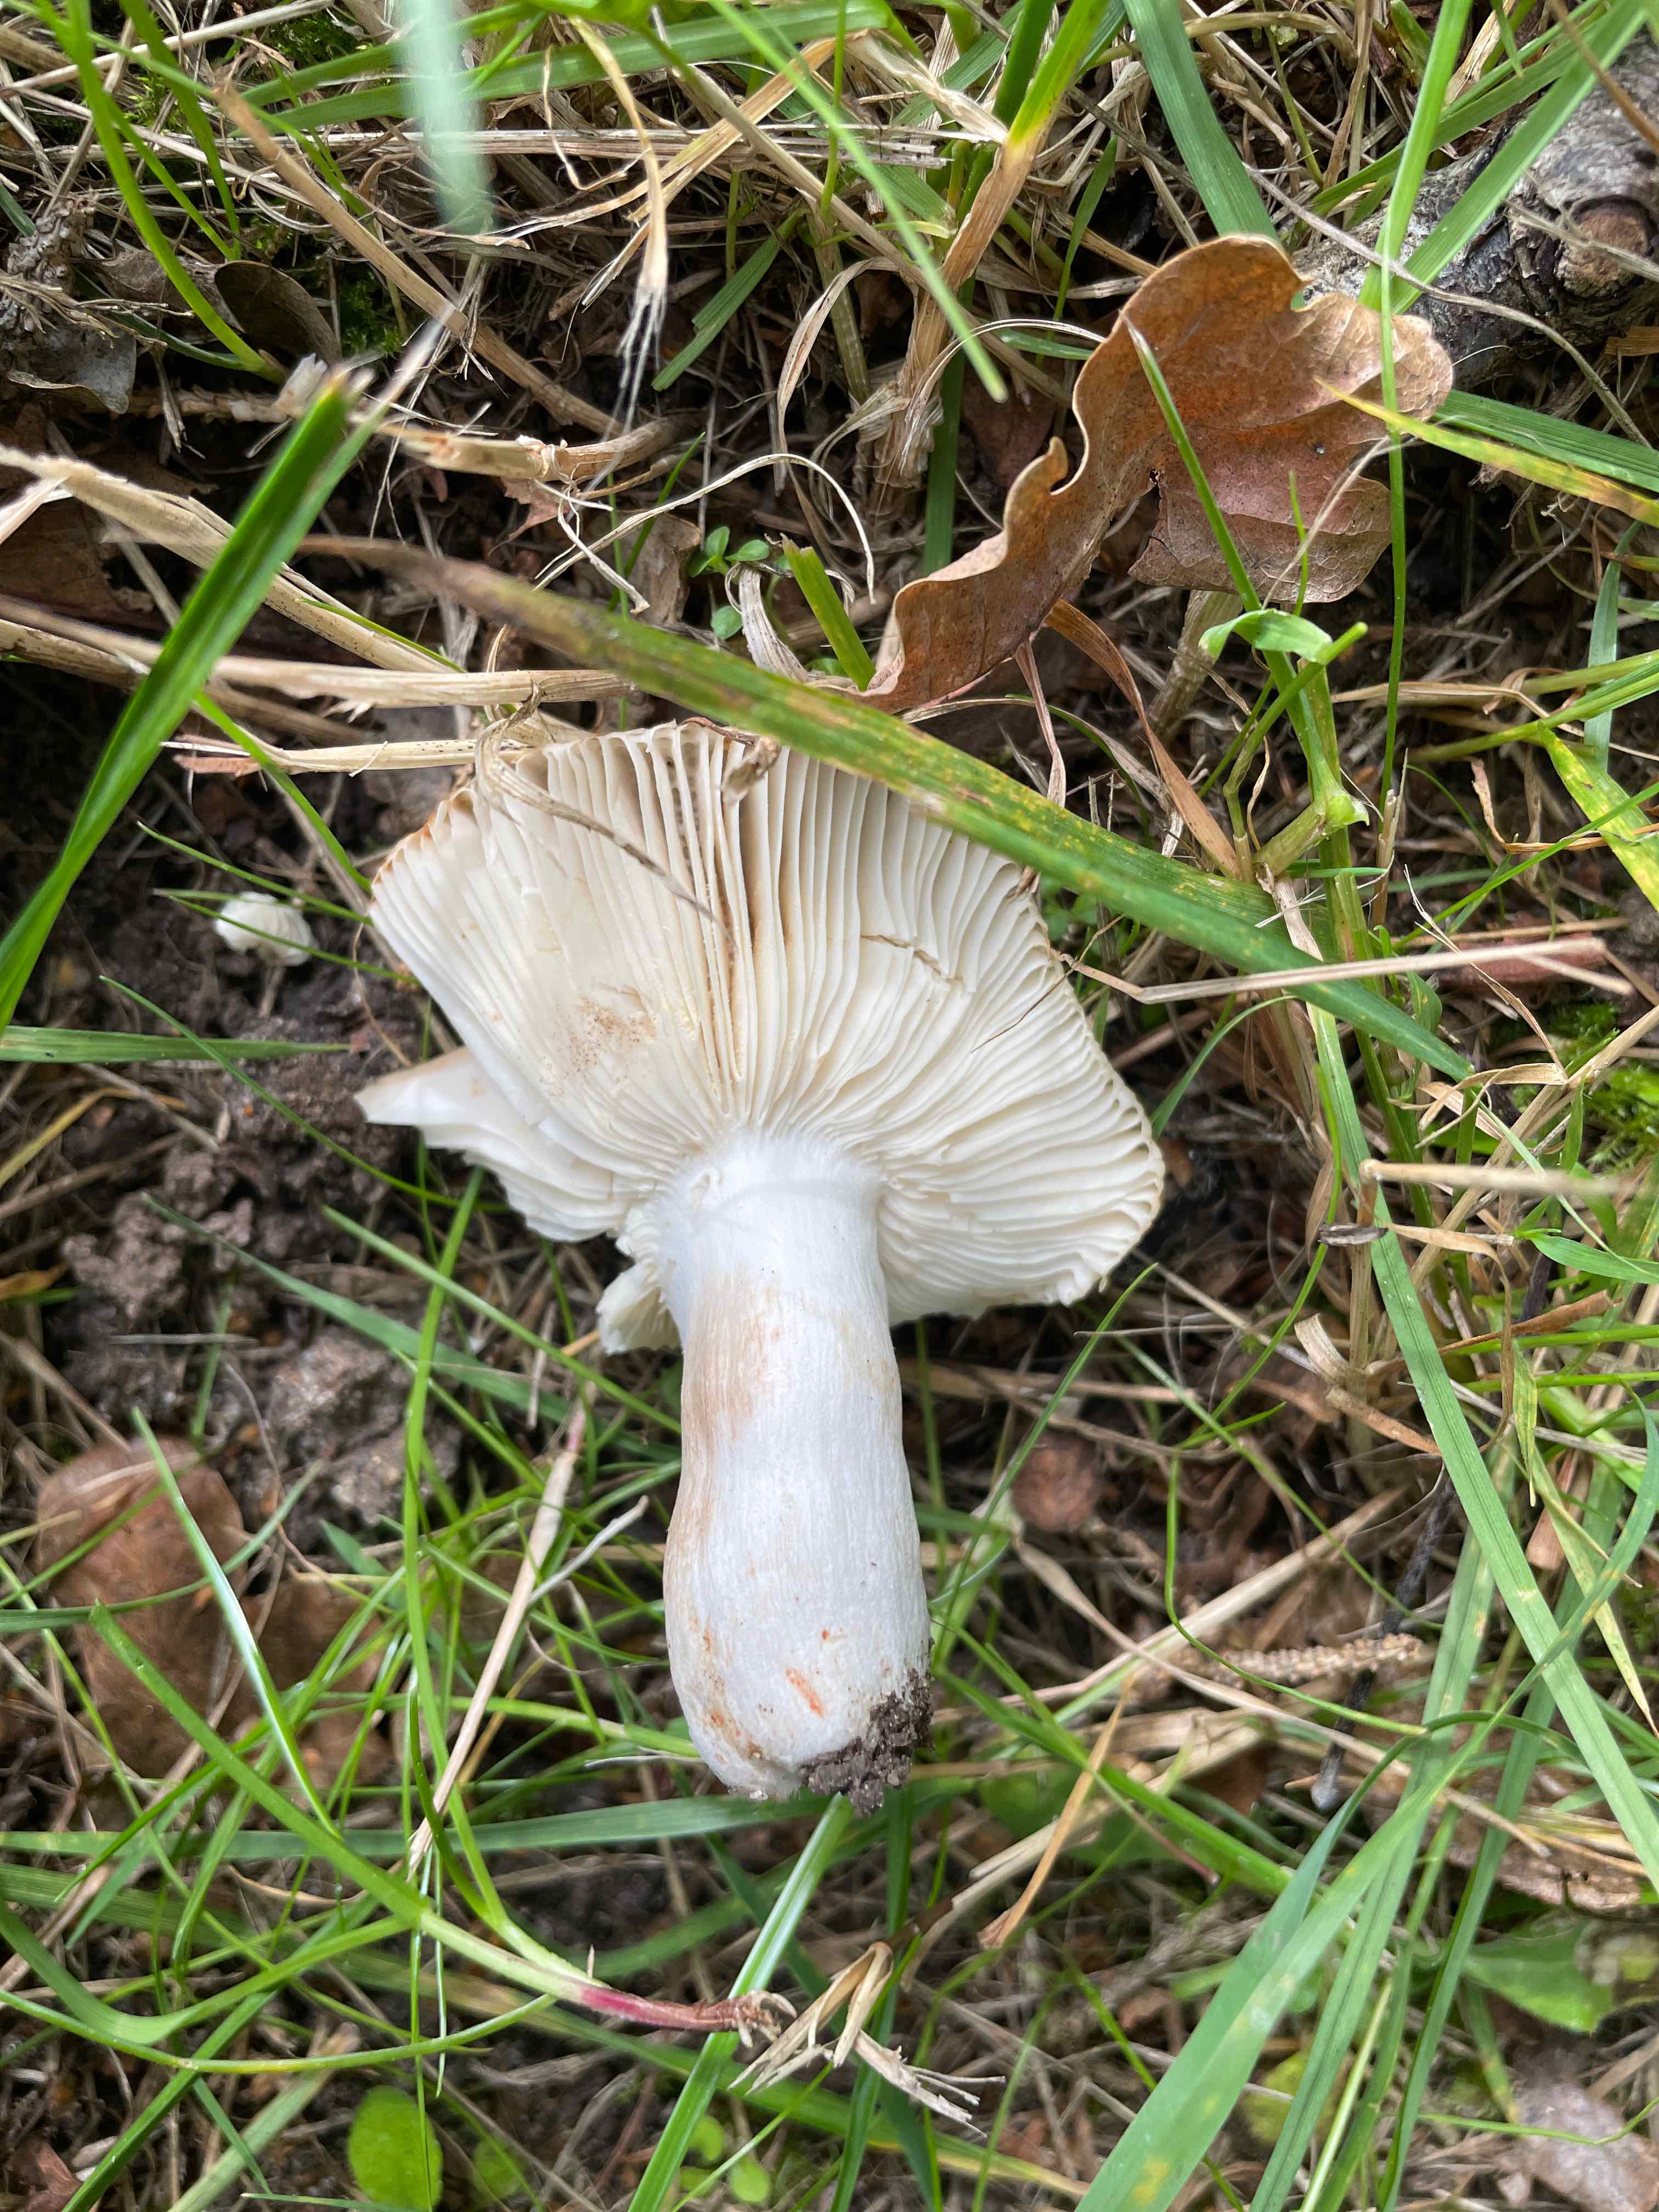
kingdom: Fungi
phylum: Basidiomycota
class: Agaricomycetes
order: Russulales
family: Russulaceae
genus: Russula
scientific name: Russula recondita
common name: mild kam-skørhat
